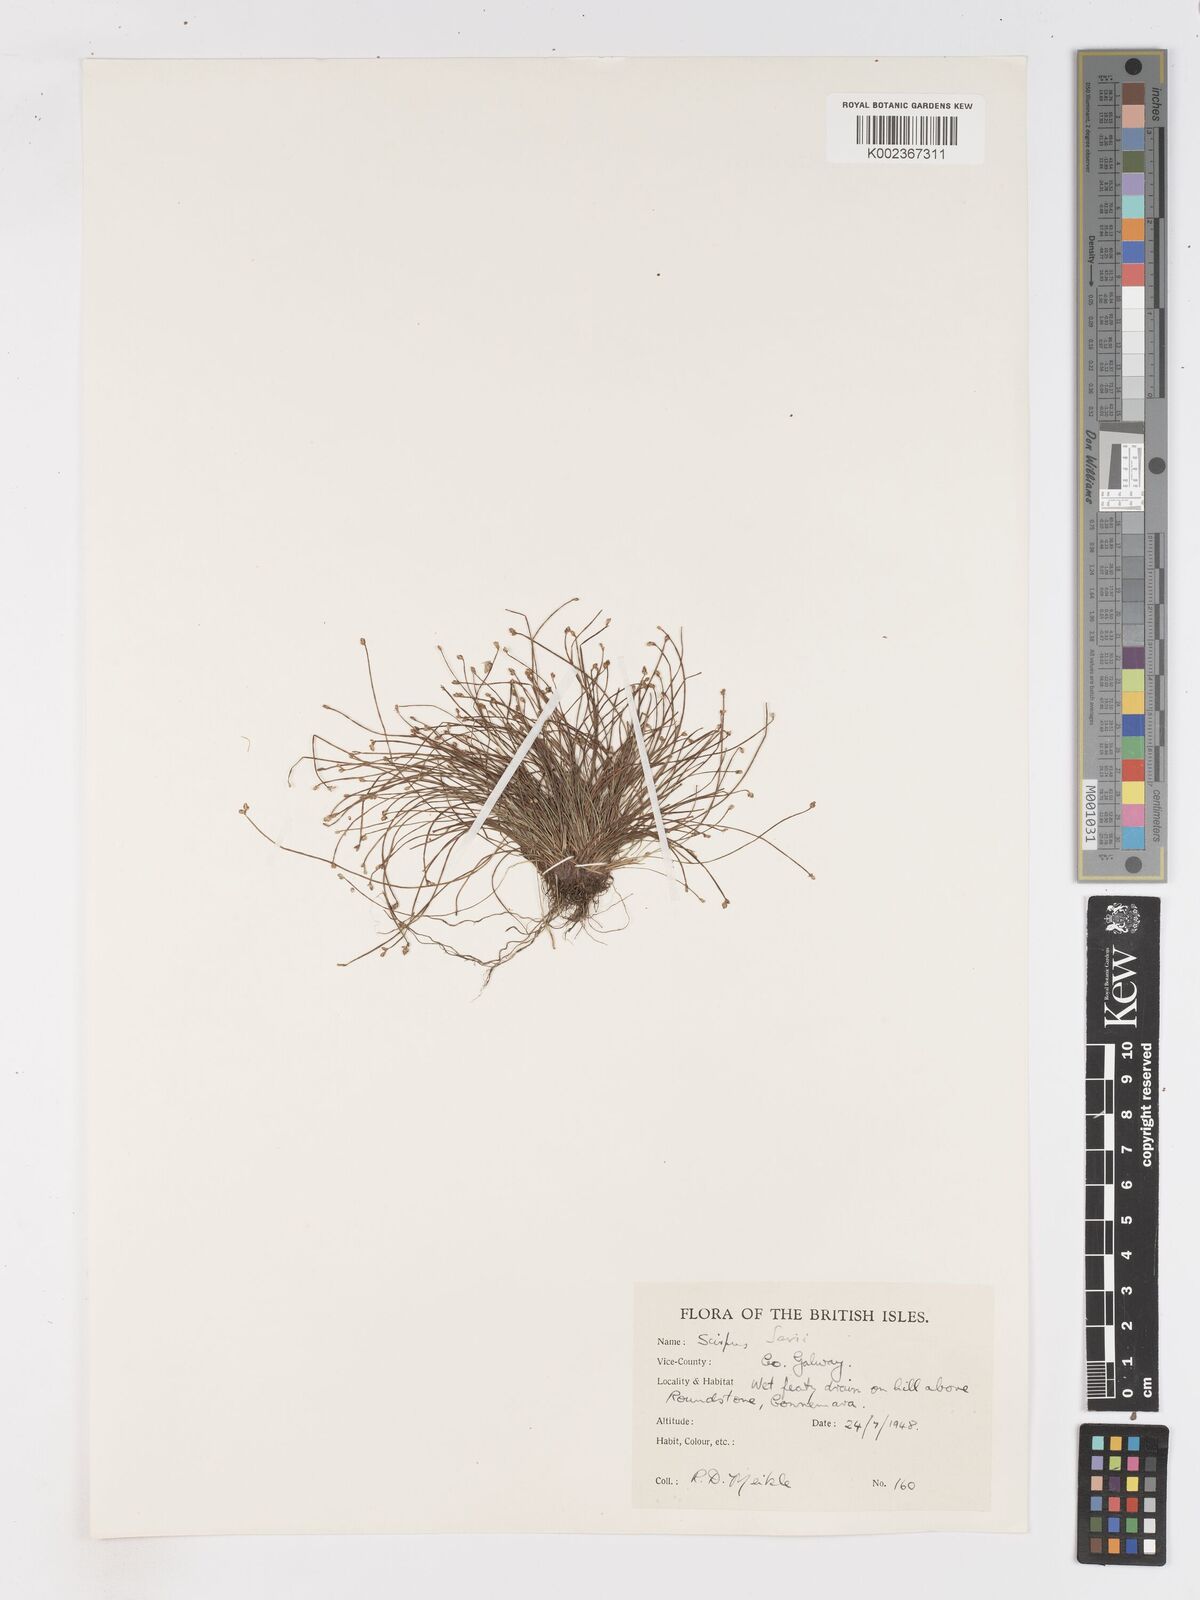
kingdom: Plantae
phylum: Tracheophyta
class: Liliopsida
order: Poales
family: Cyperaceae
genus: Isolepis
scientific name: Isolepis cernua
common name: Slender club-rush
